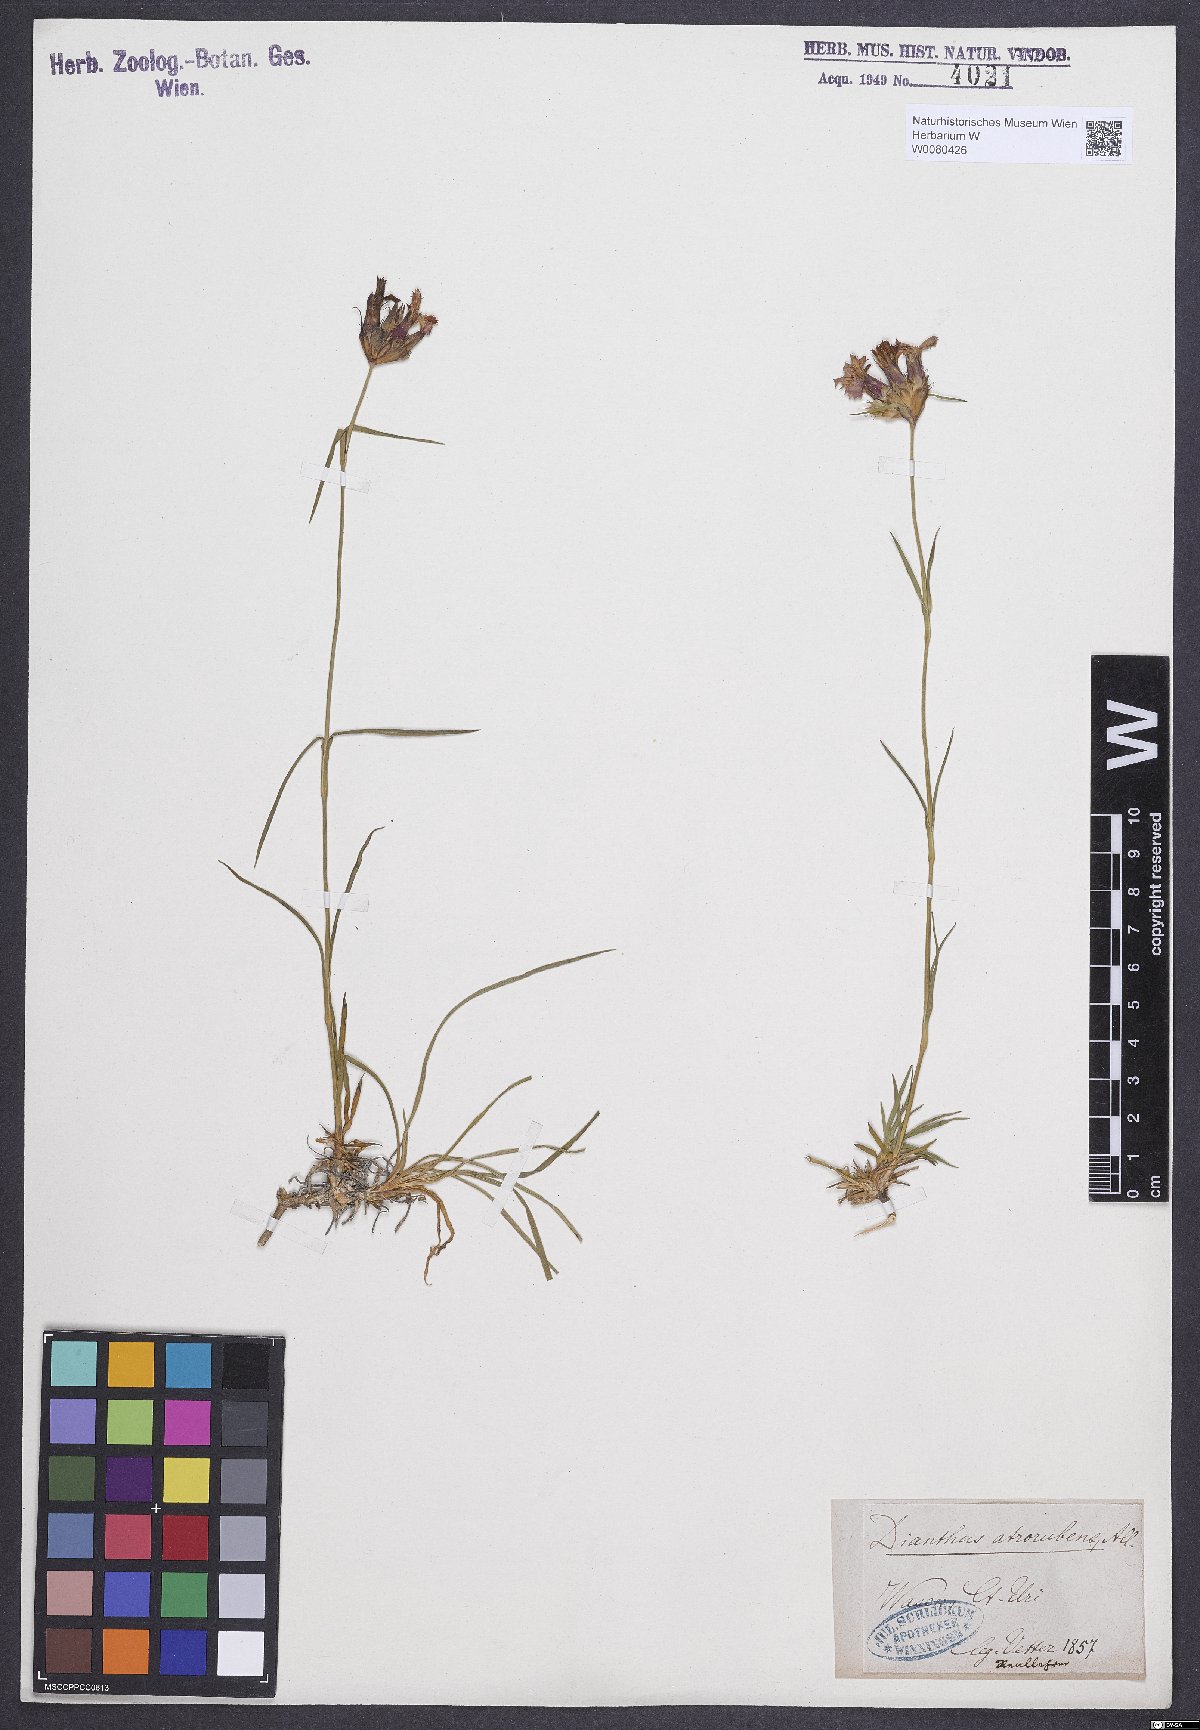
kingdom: Plantae
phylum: Tracheophyta
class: Magnoliopsida
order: Caryophyllales
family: Caryophyllaceae
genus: Dianthus
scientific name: Dianthus carthusianorum
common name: Carthusian pink
